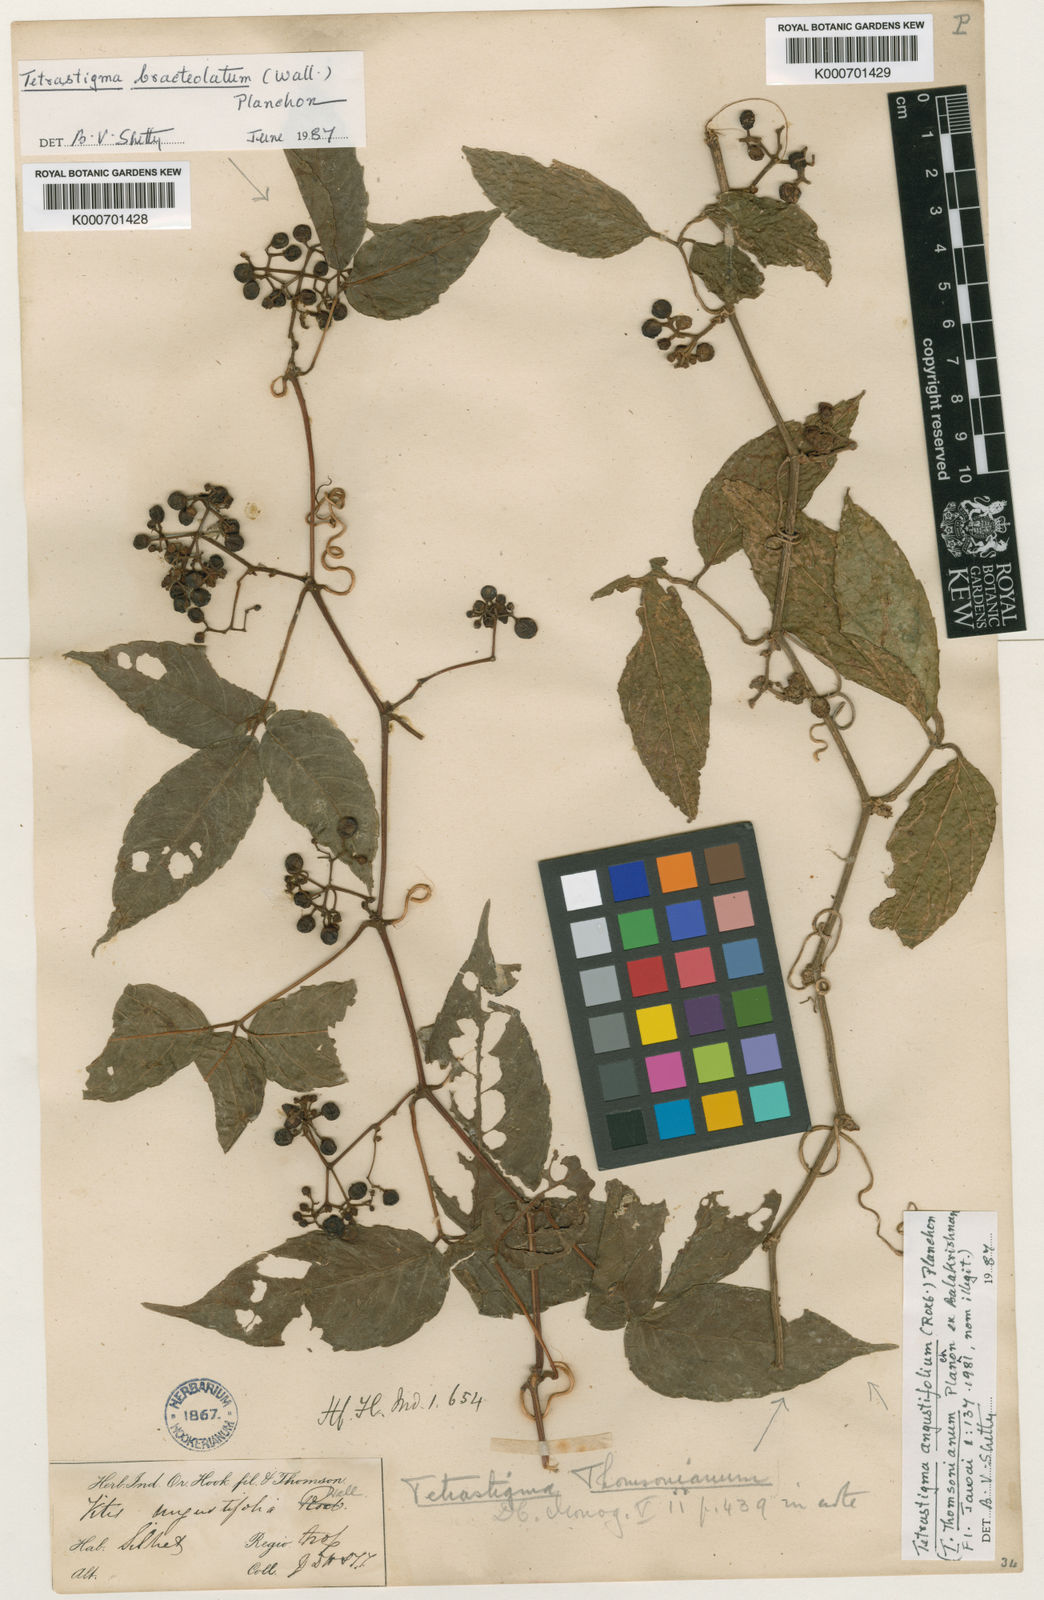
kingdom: Plantae
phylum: Tracheophyta
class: Magnoliopsida
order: Vitales
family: Vitaceae
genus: Tetrastigma
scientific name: Tetrastigma thomsonianum
